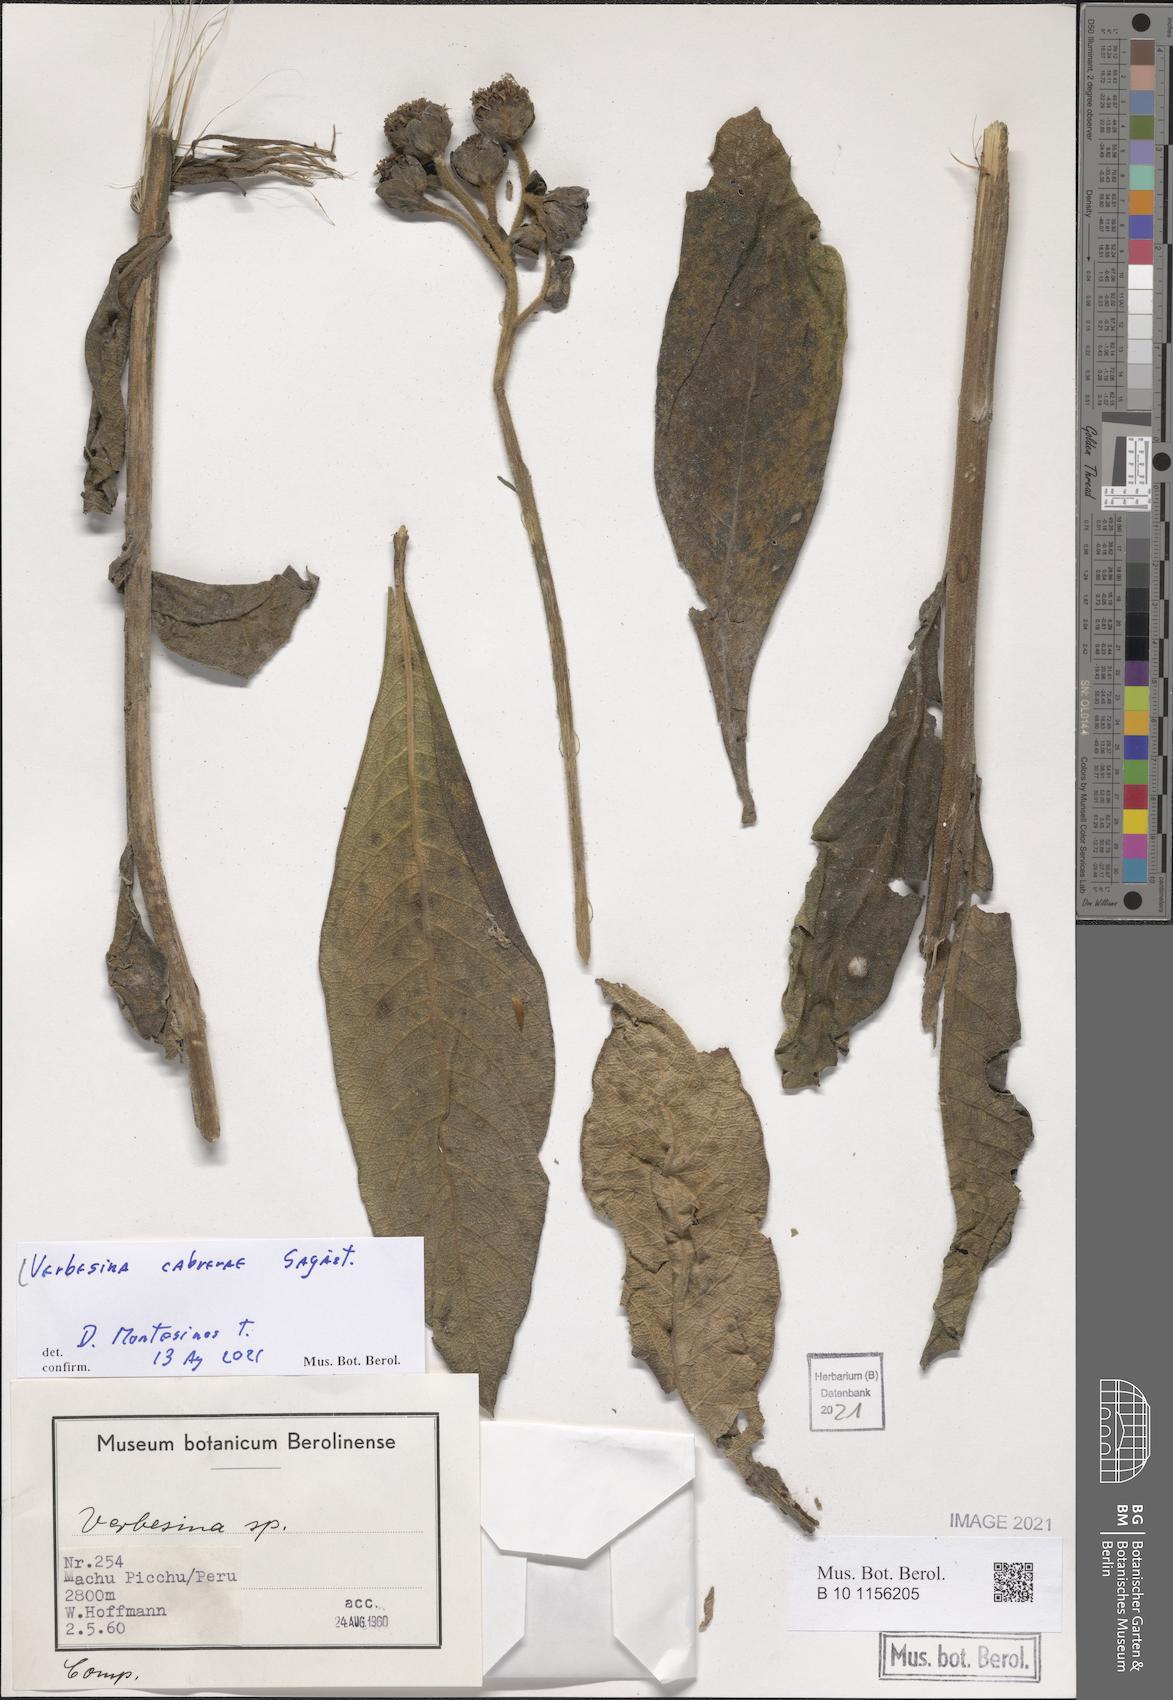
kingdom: Plantae
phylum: Tracheophyta
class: Magnoliopsida
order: Asterales
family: Asteraceae
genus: Verbesina
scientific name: Verbesina cabrerae
